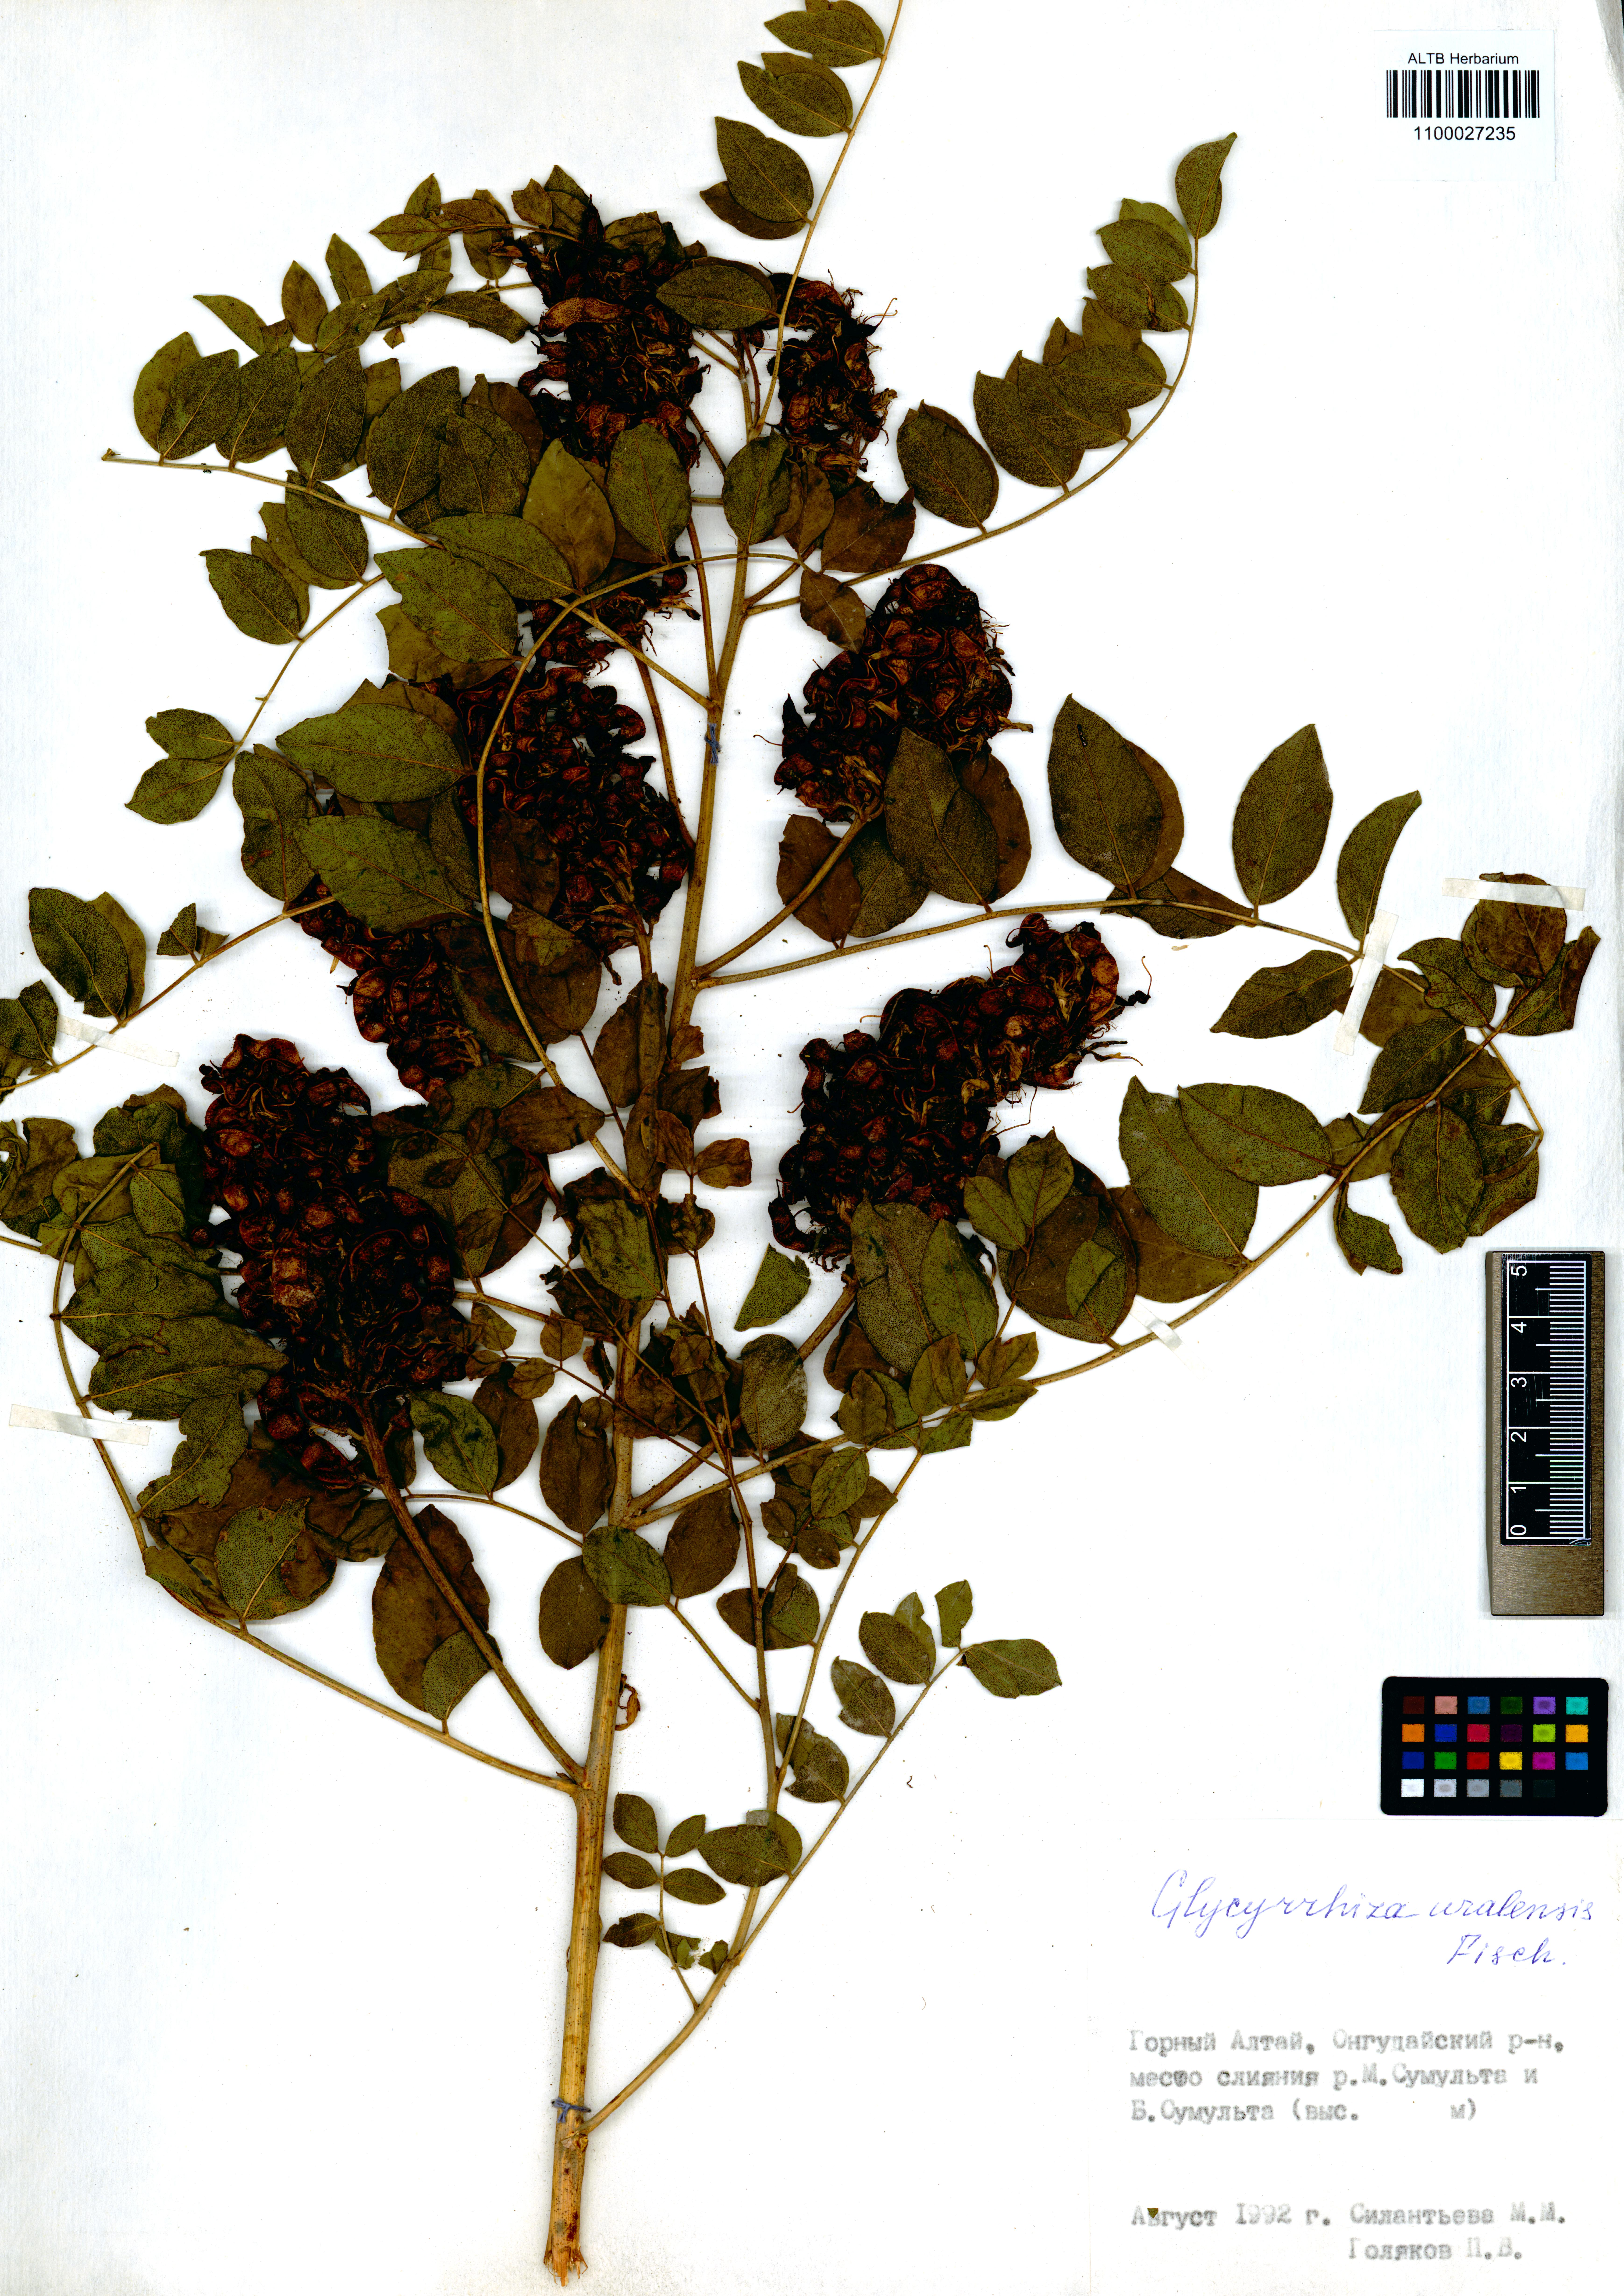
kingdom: Plantae
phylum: Tracheophyta
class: Magnoliopsida
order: Fabales
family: Fabaceae
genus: Glycyrrhiza
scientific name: Glycyrrhiza uralensis
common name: Chinese licorice
